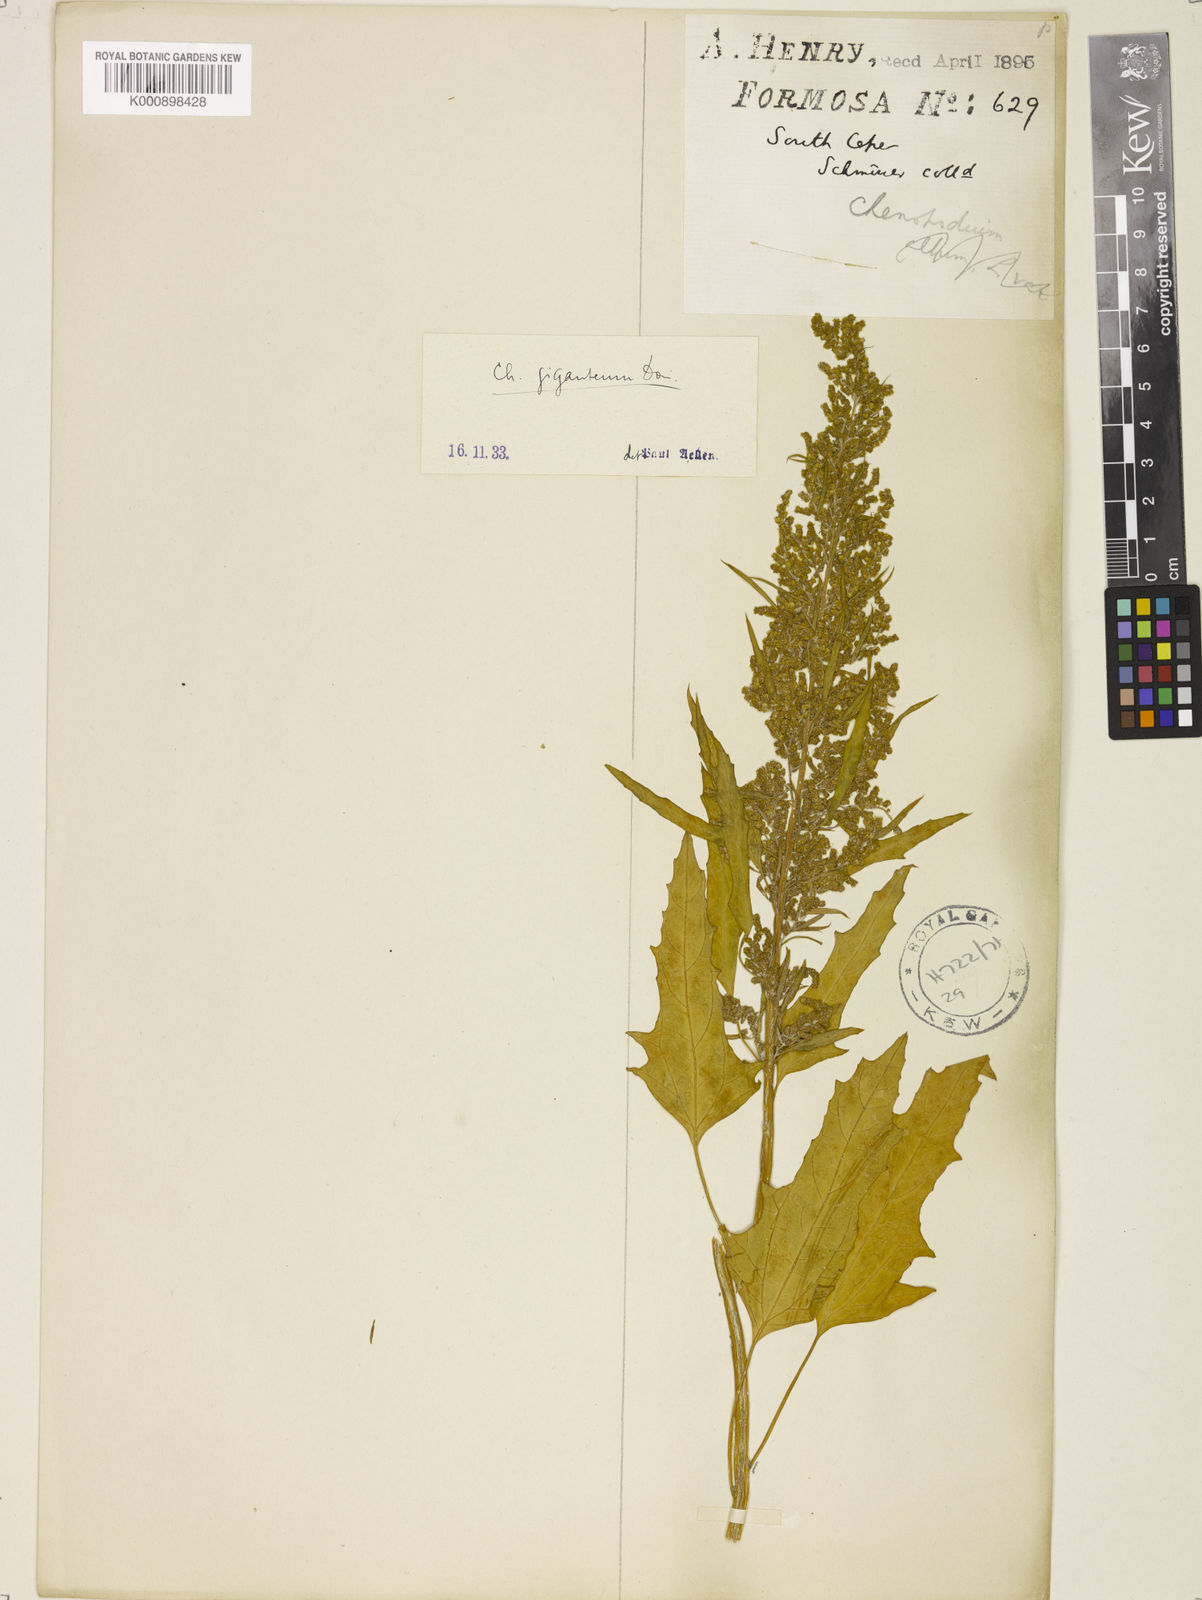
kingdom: Plantae
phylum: Tracheophyta
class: Magnoliopsida
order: Caryophyllales
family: Amaranthaceae
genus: Chenopodium
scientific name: Chenopodium giganteum
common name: Magentaspreen
